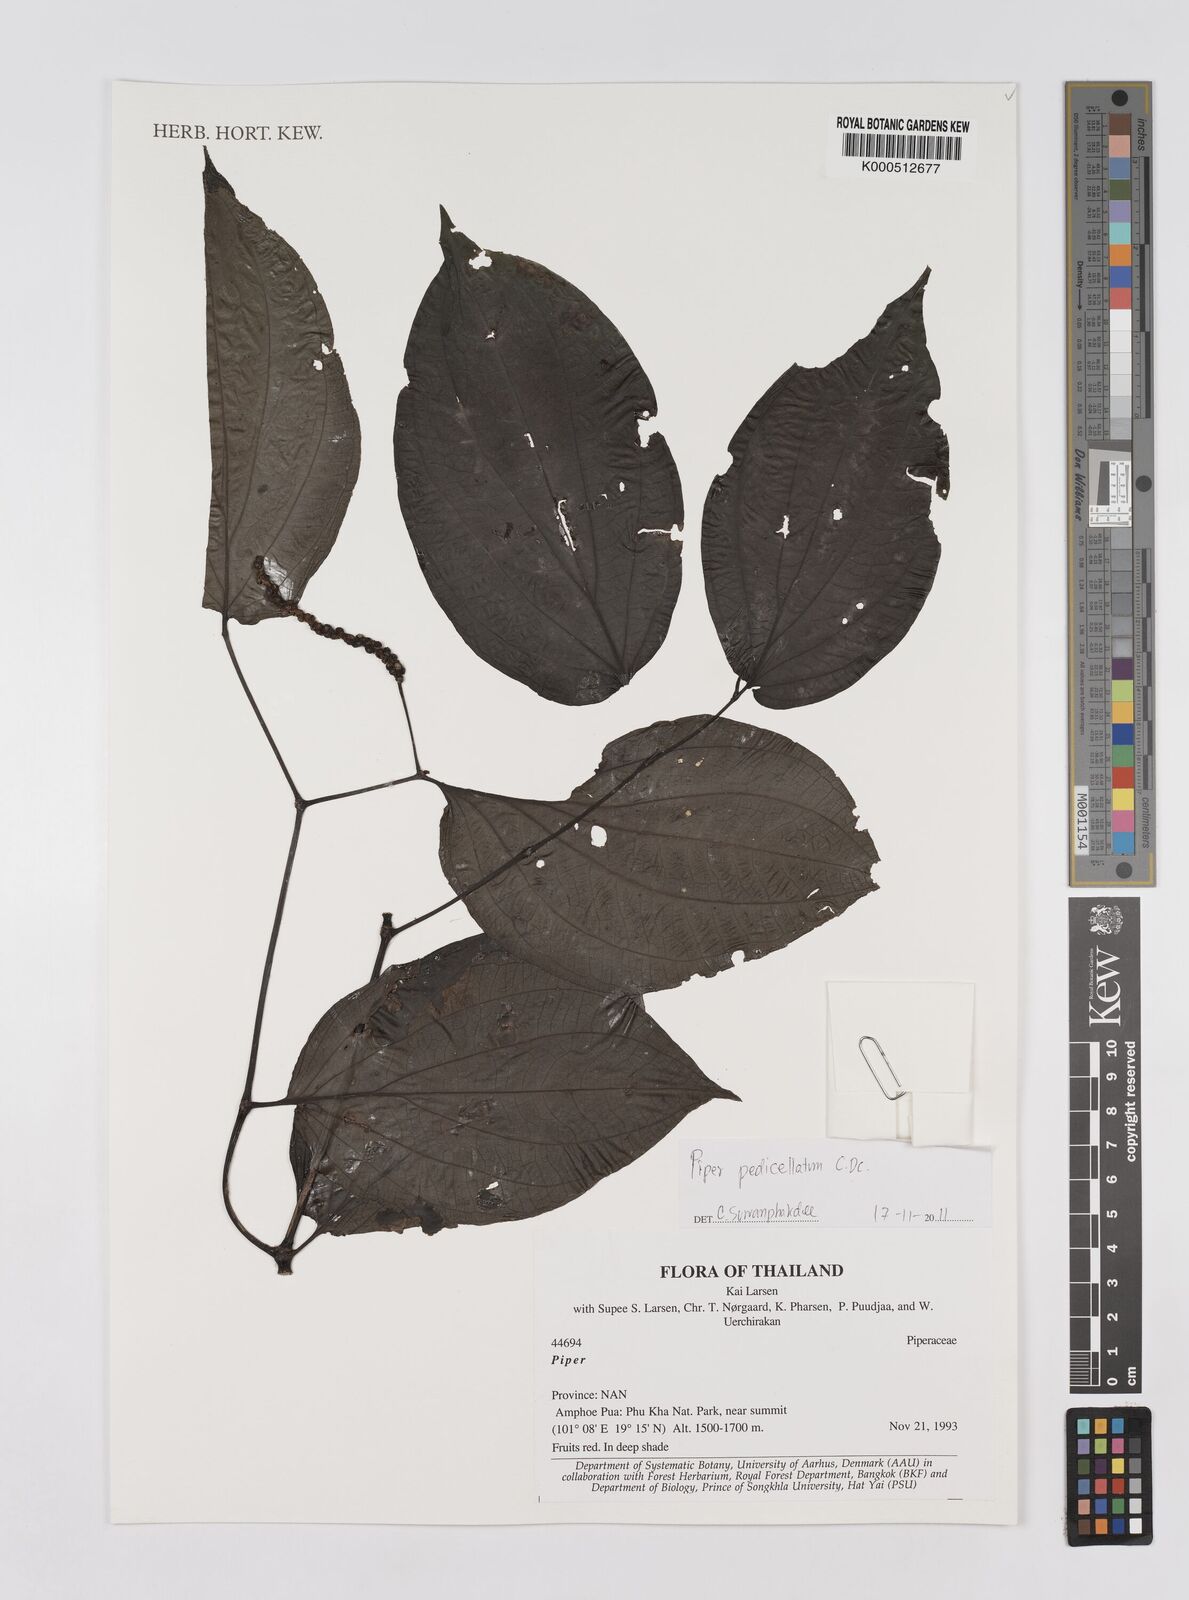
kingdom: Plantae
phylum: Tracheophyta
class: Magnoliopsida
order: Piperales
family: Piperaceae
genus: Piper
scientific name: Piper
